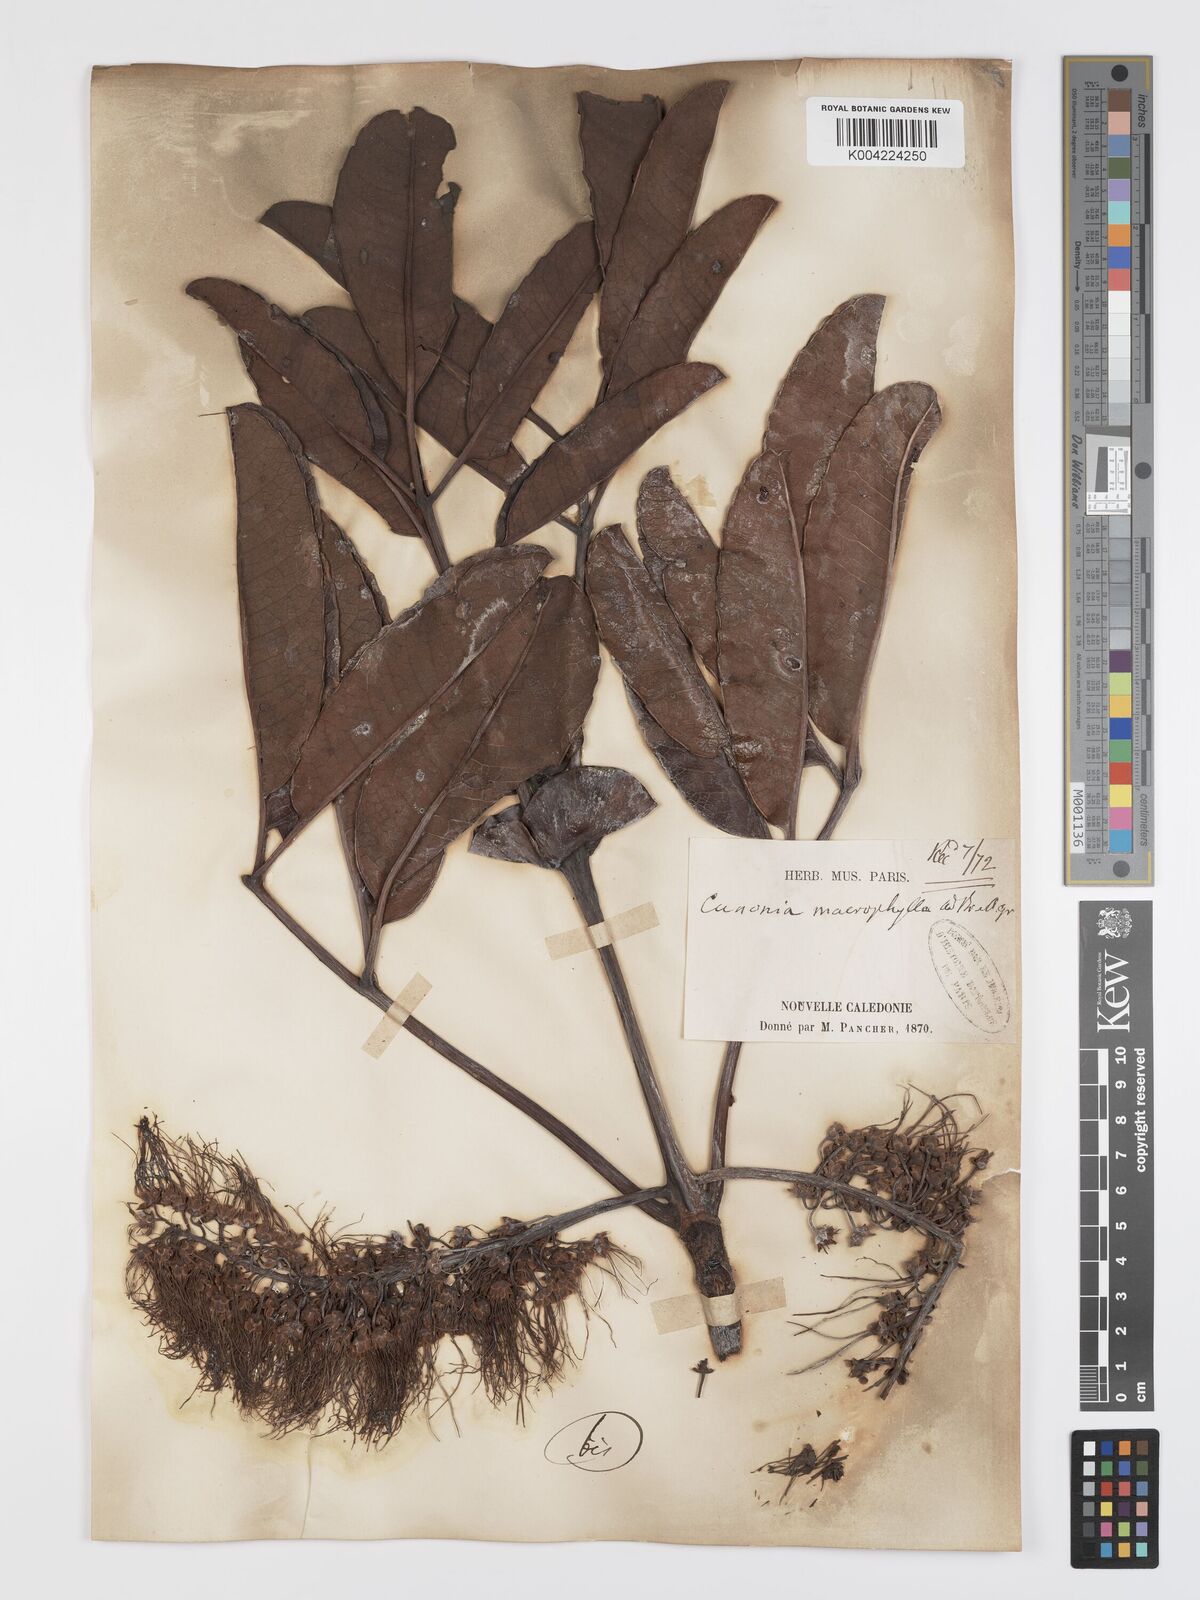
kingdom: Plantae
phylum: Tracheophyta
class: Magnoliopsida
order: Oxalidales
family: Cunoniaceae
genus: Cunonia
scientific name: Cunonia macrophylla
